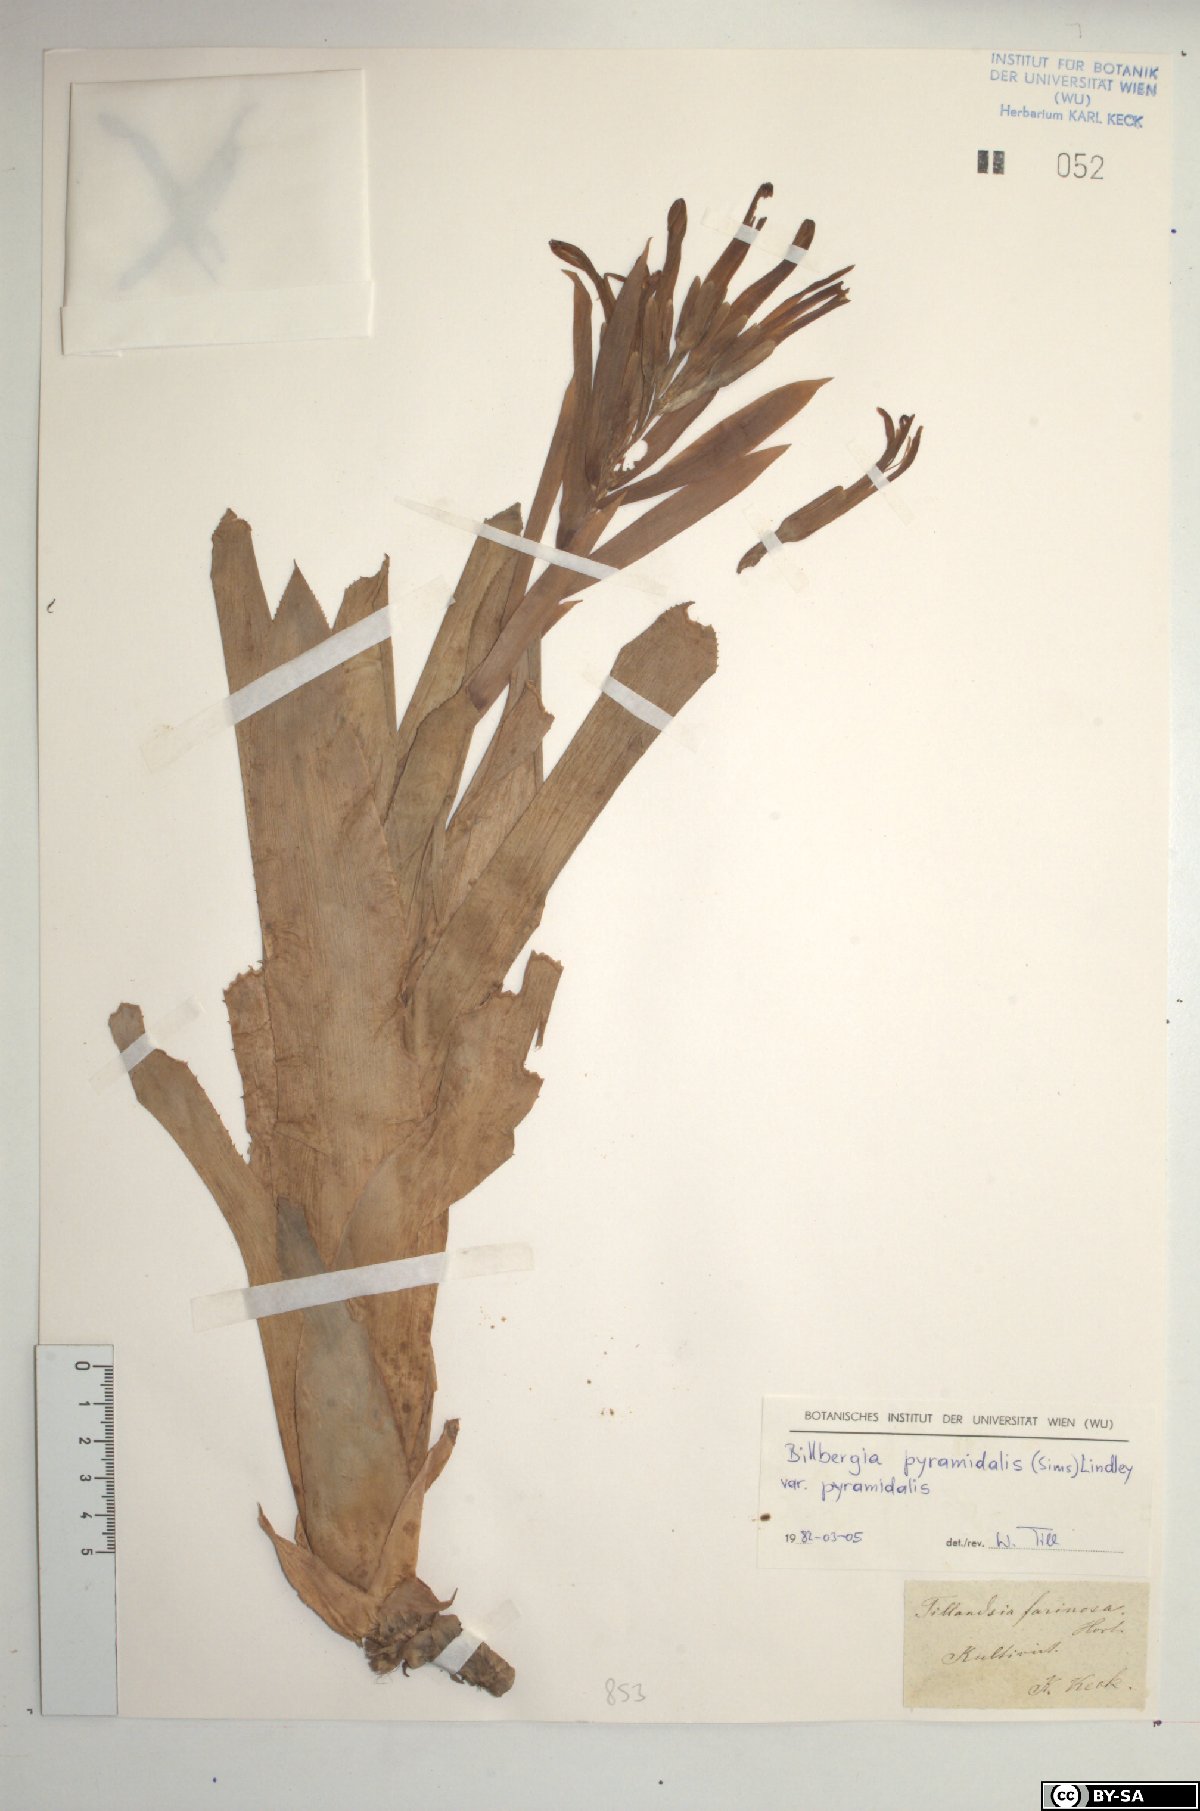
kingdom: Plantae
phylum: Tracheophyta
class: Liliopsida
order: Poales
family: Bromeliaceae
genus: Billbergia
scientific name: Billbergia pyramidalis
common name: Foolproofplant
